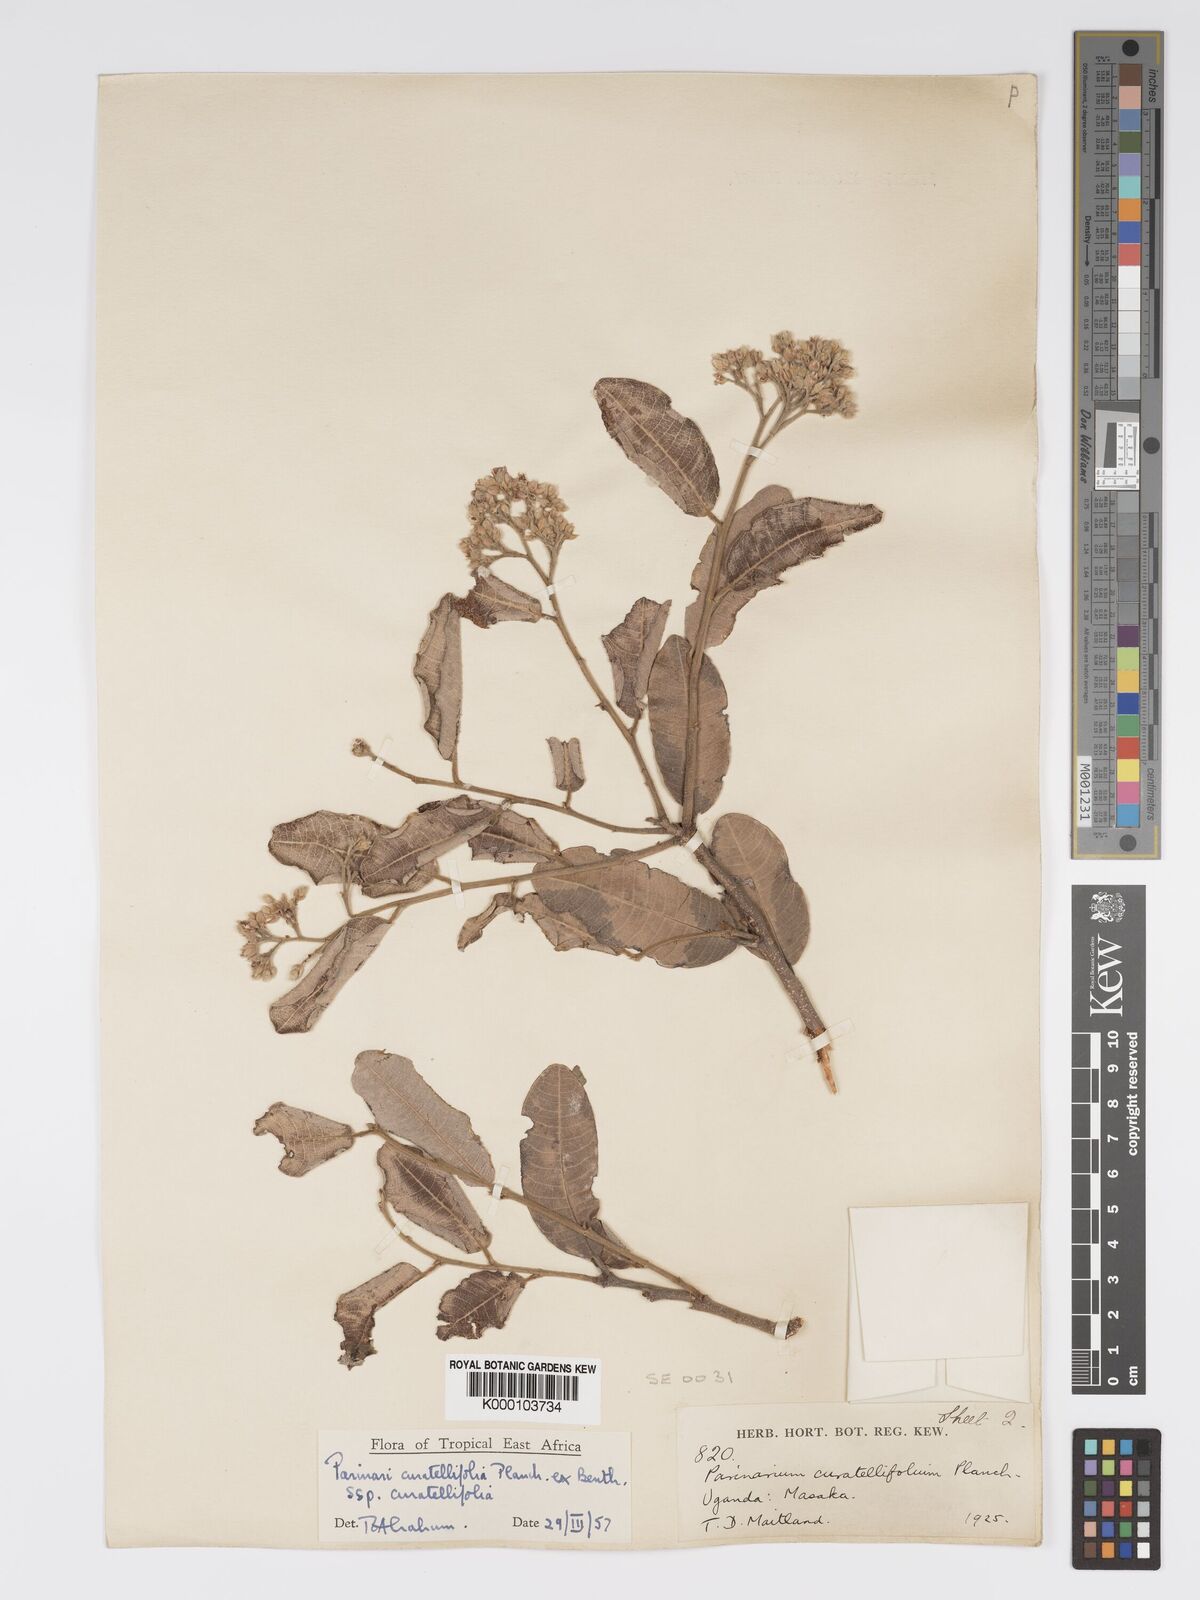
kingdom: Plantae
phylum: Tracheophyta
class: Magnoliopsida
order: Malpighiales
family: Chrysobalanaceae
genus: Parinari
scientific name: Parinari curatellifolia
